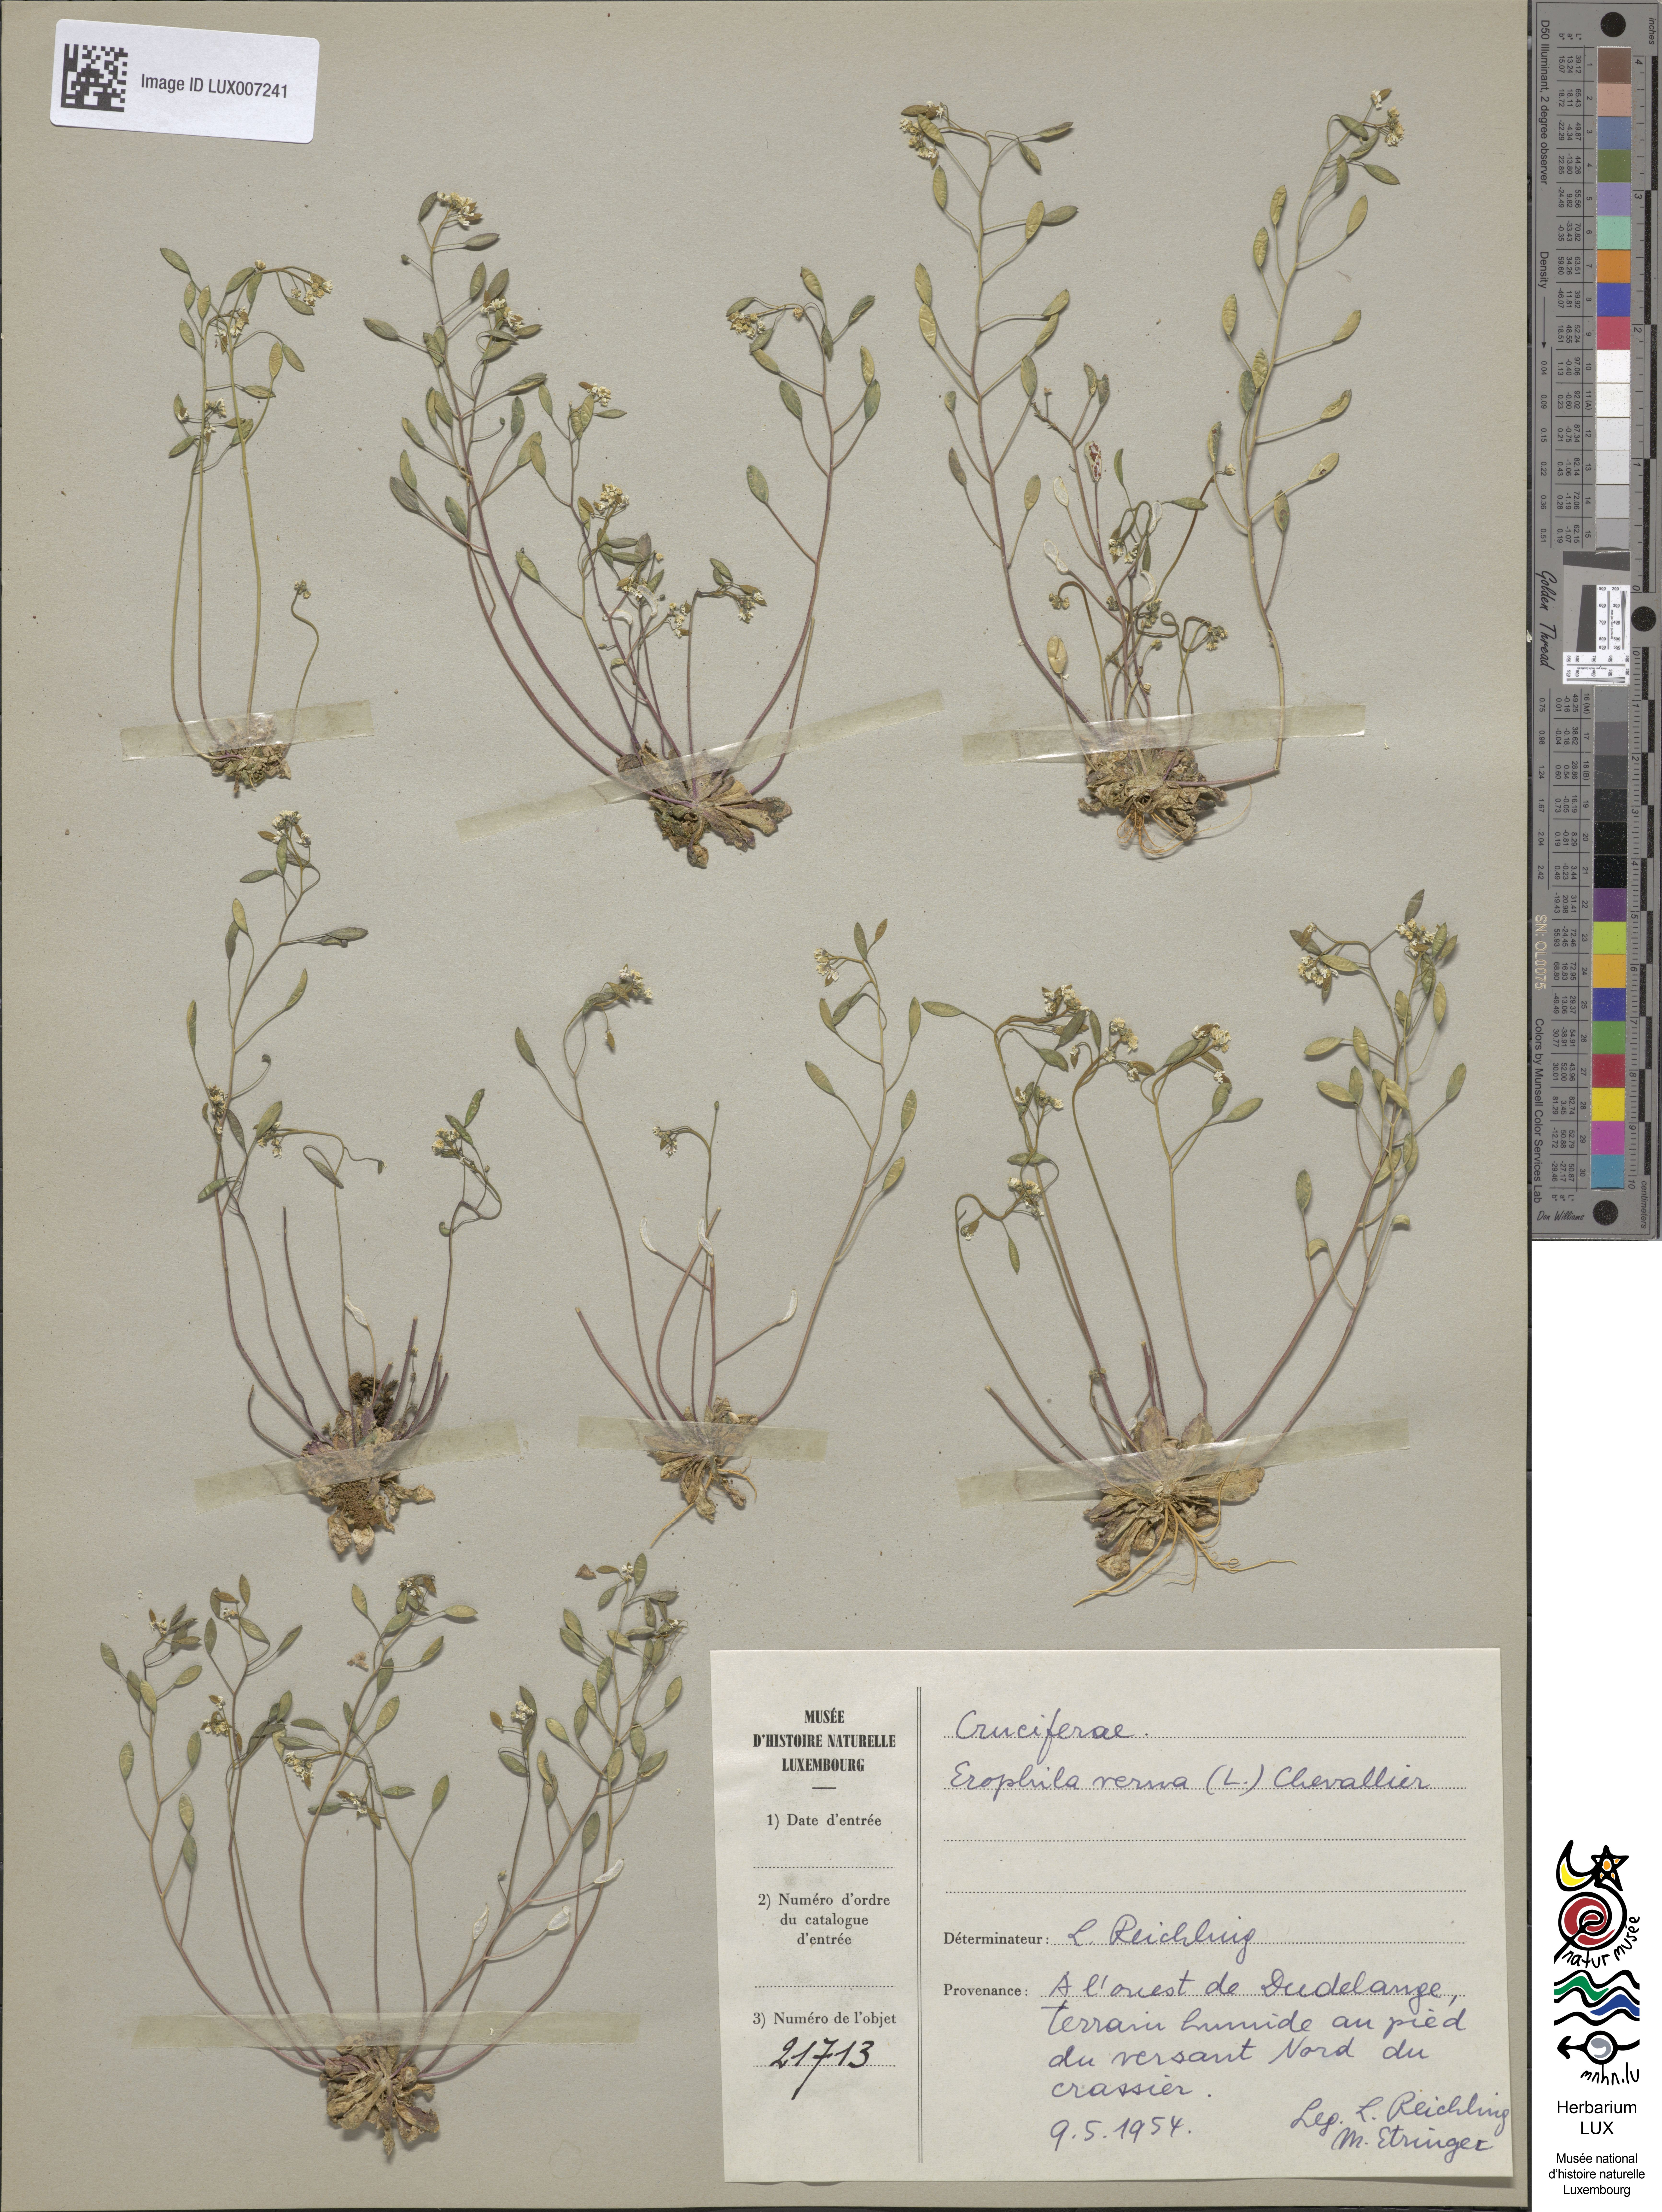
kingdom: Plantae
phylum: Tracheophyta
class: Magnoliopsida
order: Brassicales
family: Brassicaceae
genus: Draba
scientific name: Draba verna
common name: Spring draba
